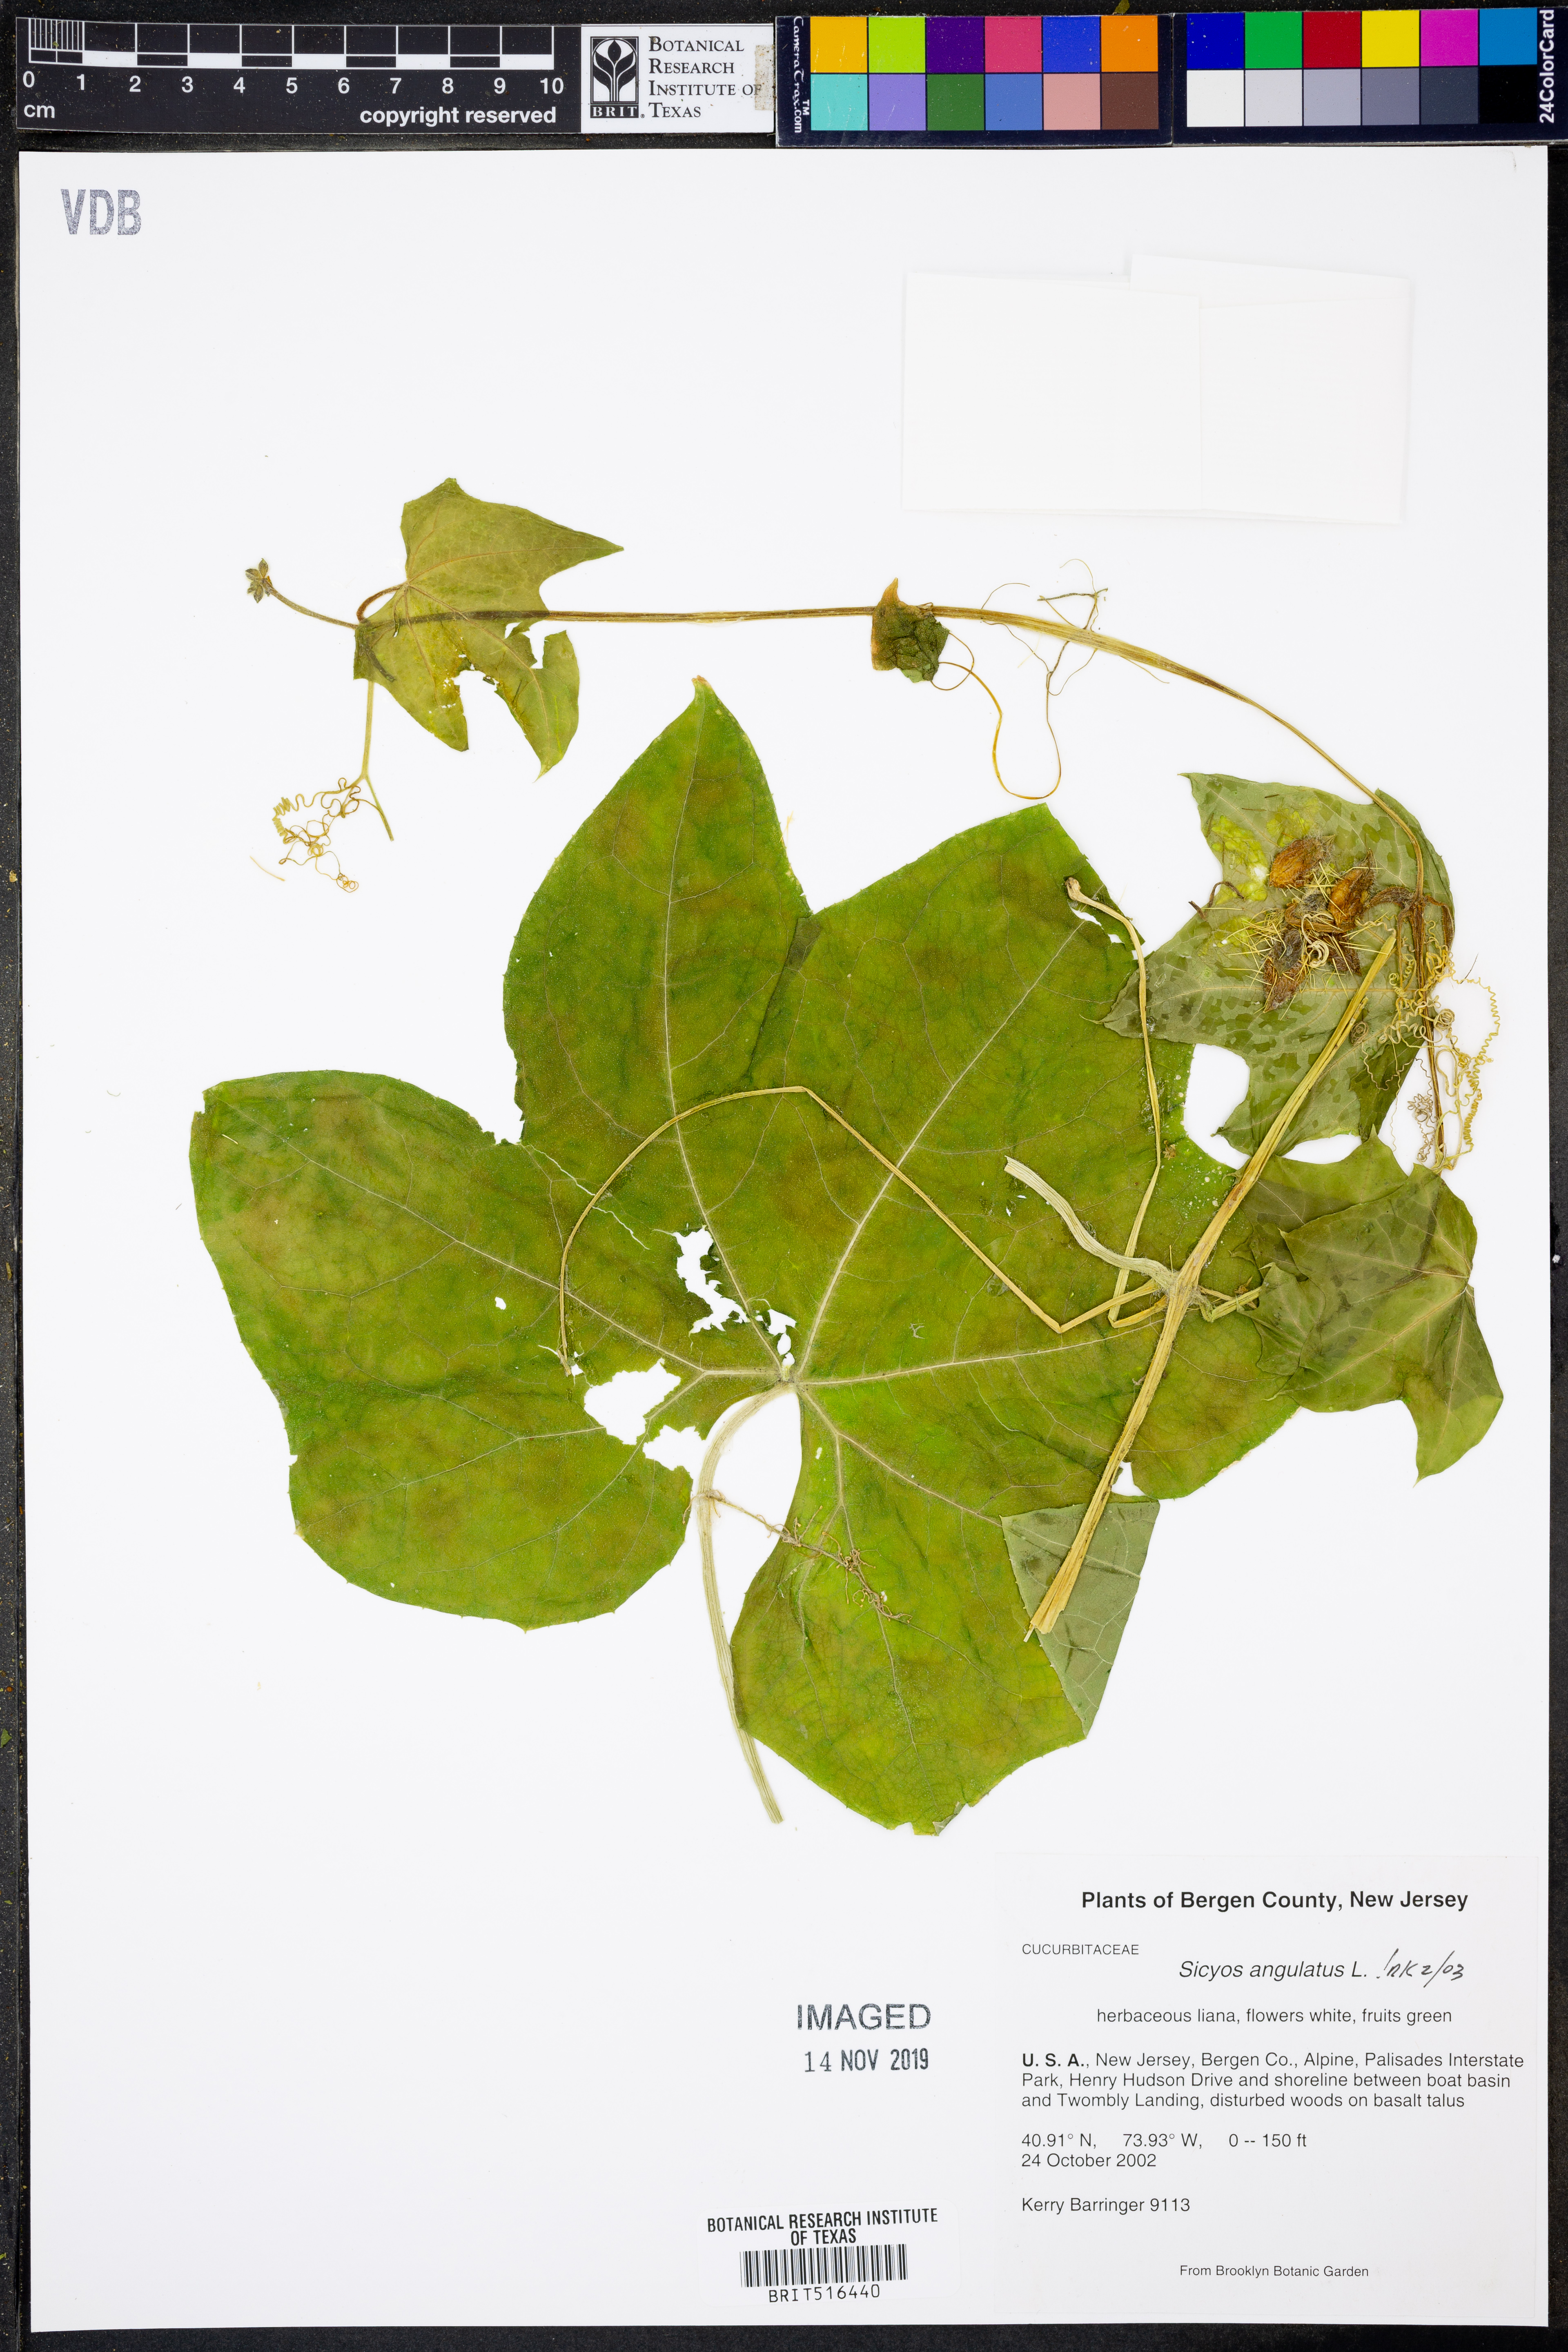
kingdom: Plantae
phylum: Tracheophyta
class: Magnoliopsida
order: Cucurbitales
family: Cucurbitaceae
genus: Sicyos
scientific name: Sicyos angulatus
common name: Angled burr cucumber
